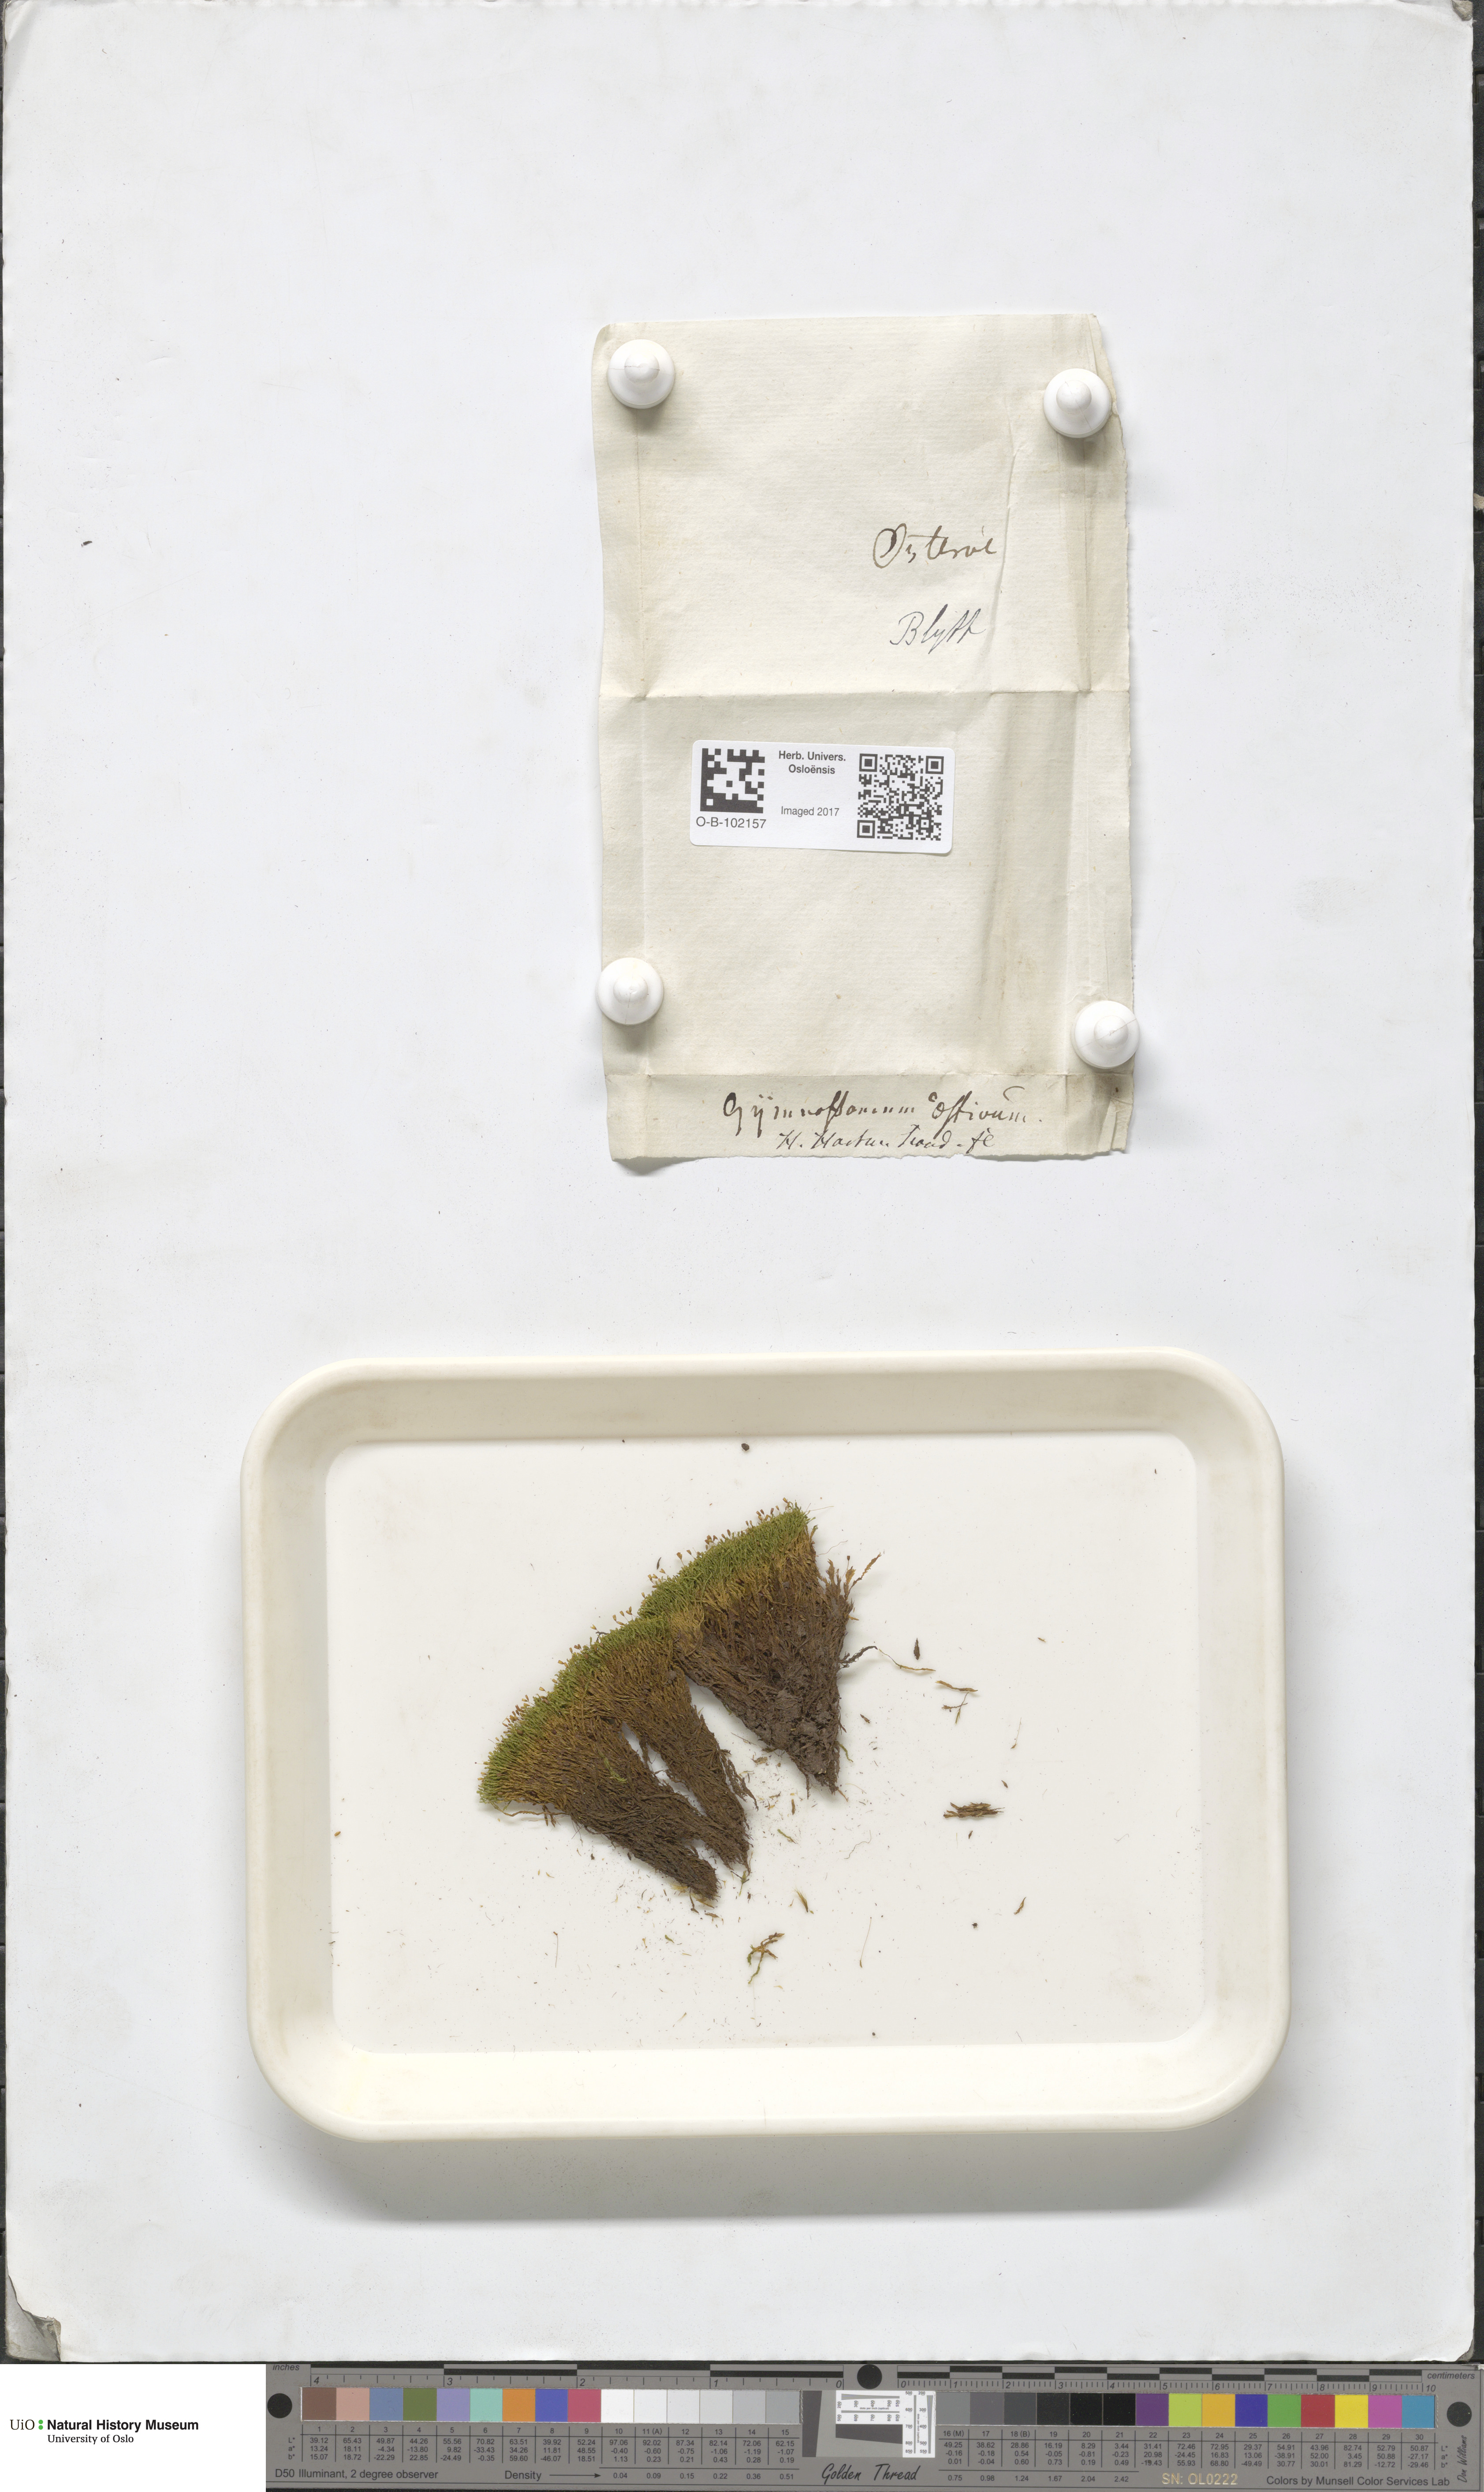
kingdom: Plantae
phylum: Bryophyta
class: Bryopsida
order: Pottiales
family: Pottiaceae
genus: Anoectangium
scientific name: Anoectangium aestivum
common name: Summer-moss
